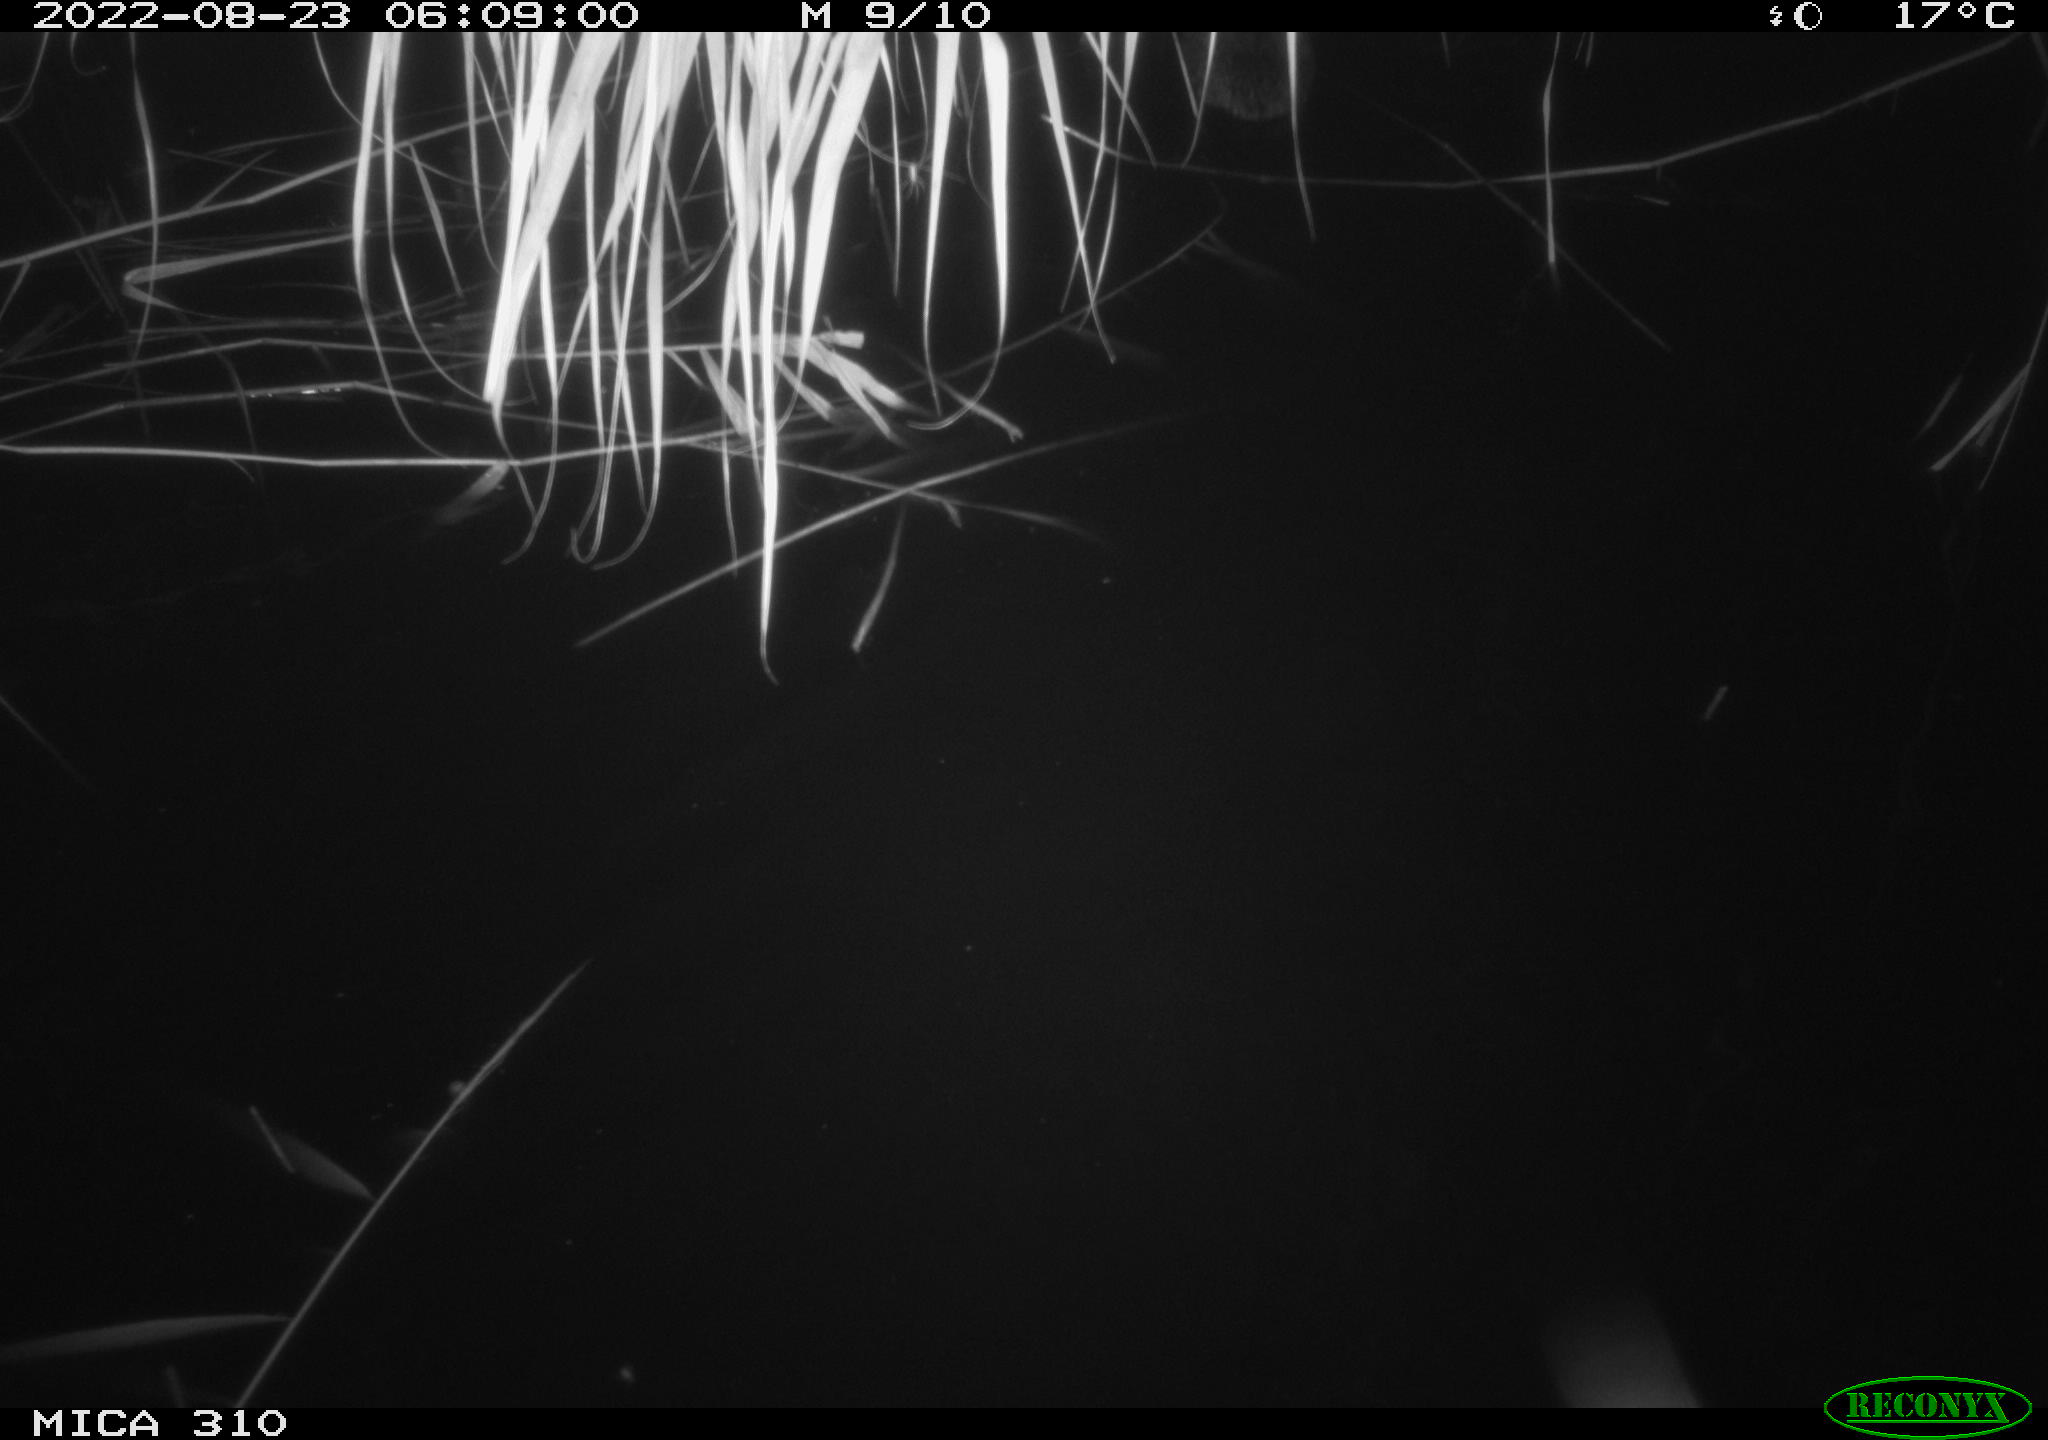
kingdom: Animalia
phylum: Chordata
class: Aves
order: Anseriformes
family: Anatidae
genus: Anas
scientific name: Anas platyrhynchos
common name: Mallard
